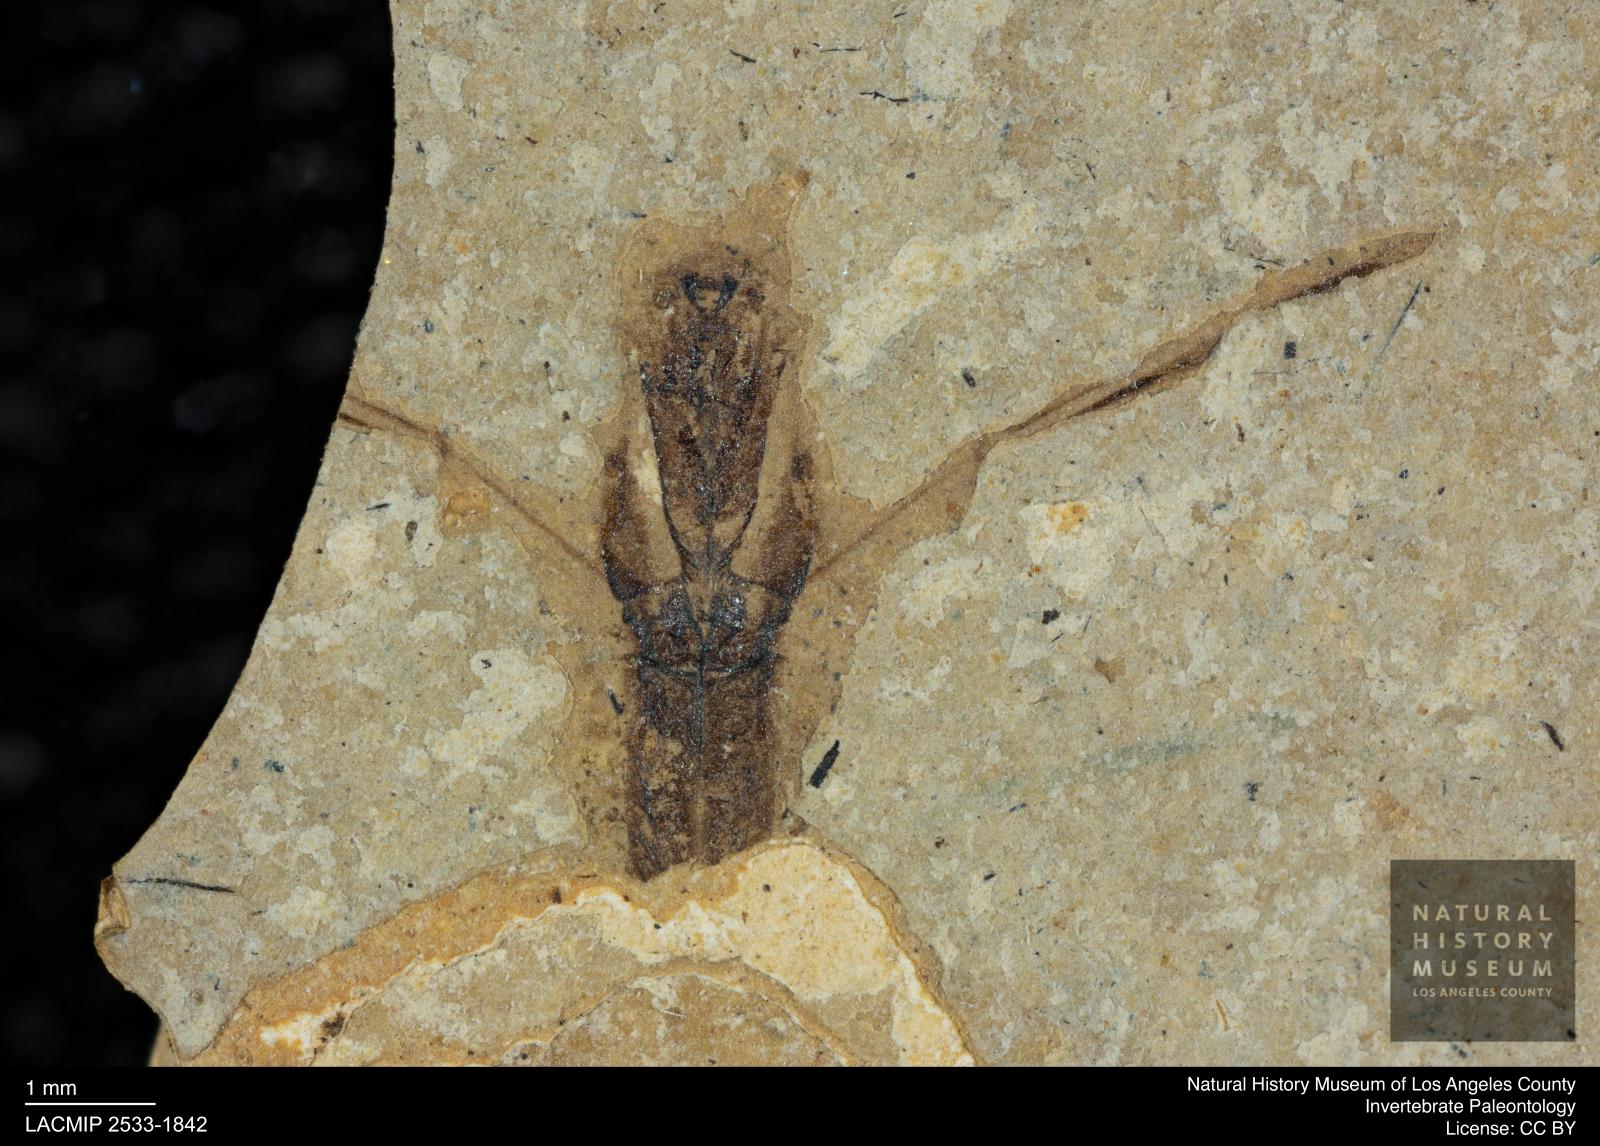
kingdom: Animalia
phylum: Arthropoda
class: Insecta
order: Hemiptera
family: Notonectidae
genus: Notonecta
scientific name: Notonecta
